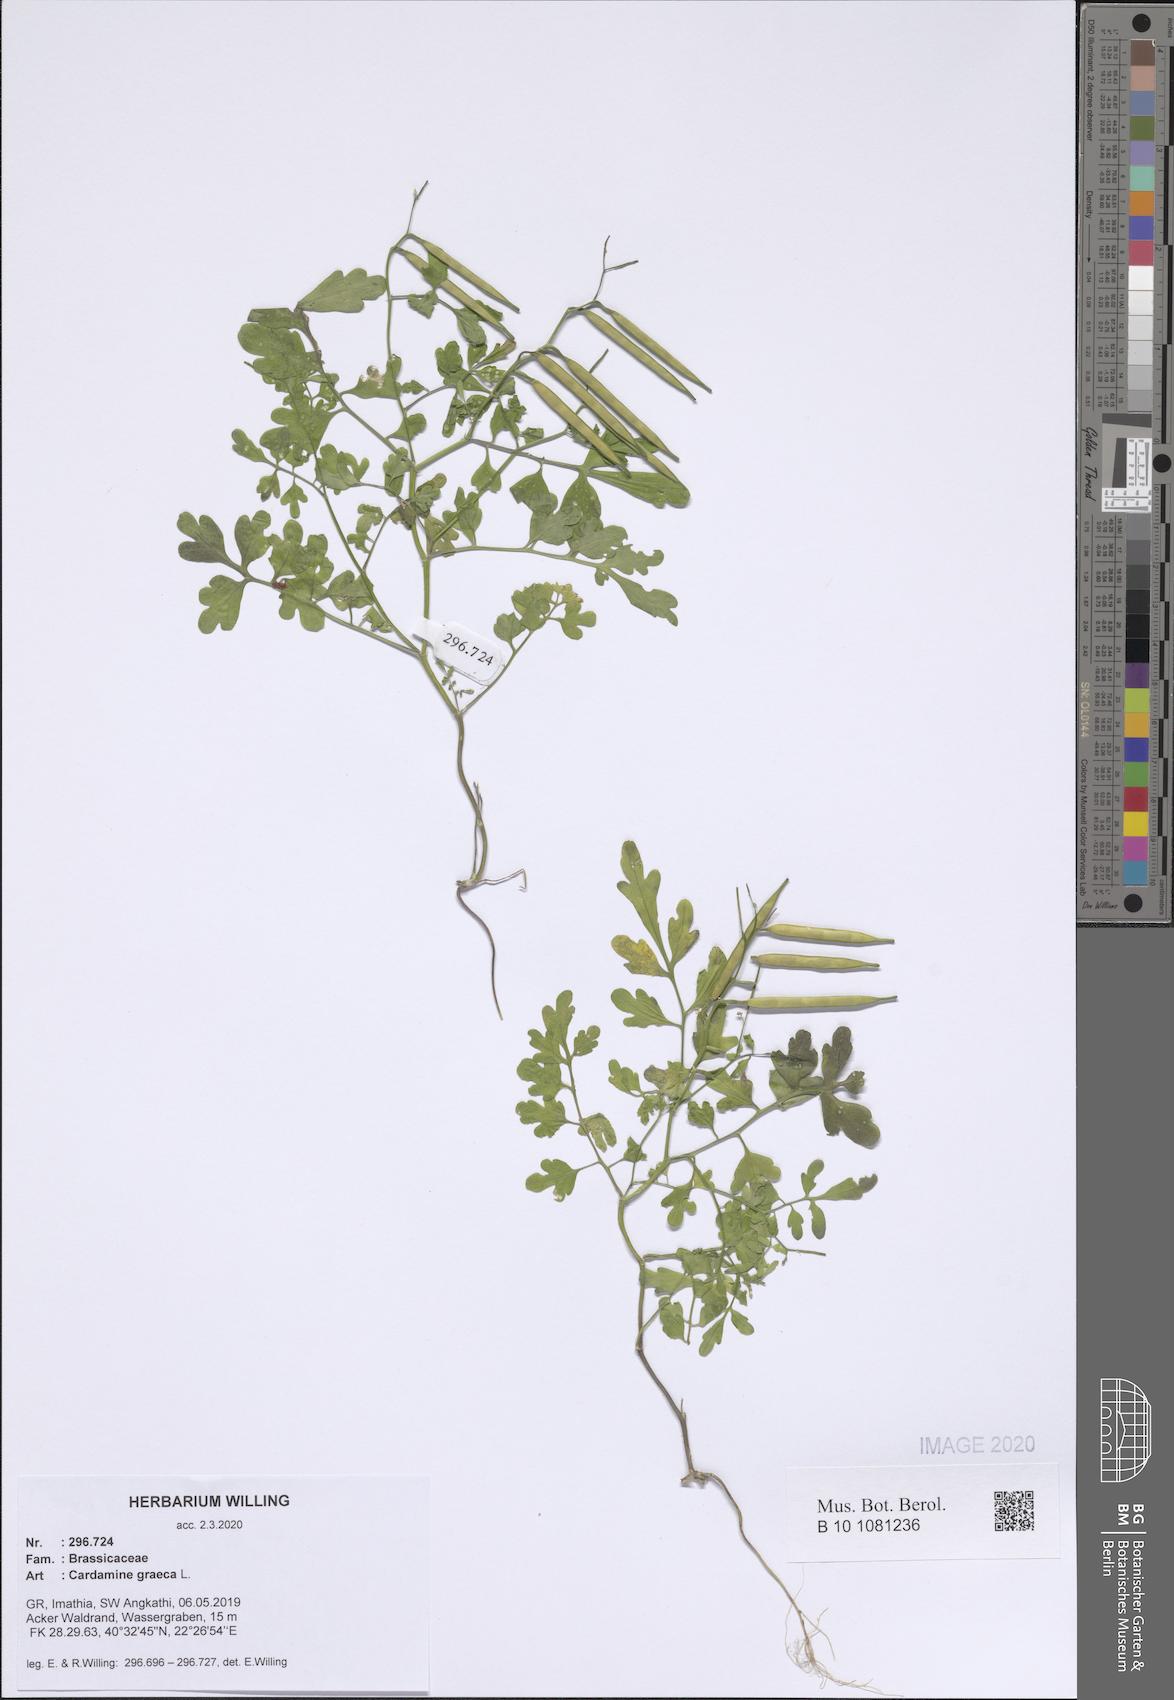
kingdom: Plantae
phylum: Tracheophyta
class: Magnoliopsida
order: Brassicales
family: Brassicaceae
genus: Cardamine
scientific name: Cardamine graeca
